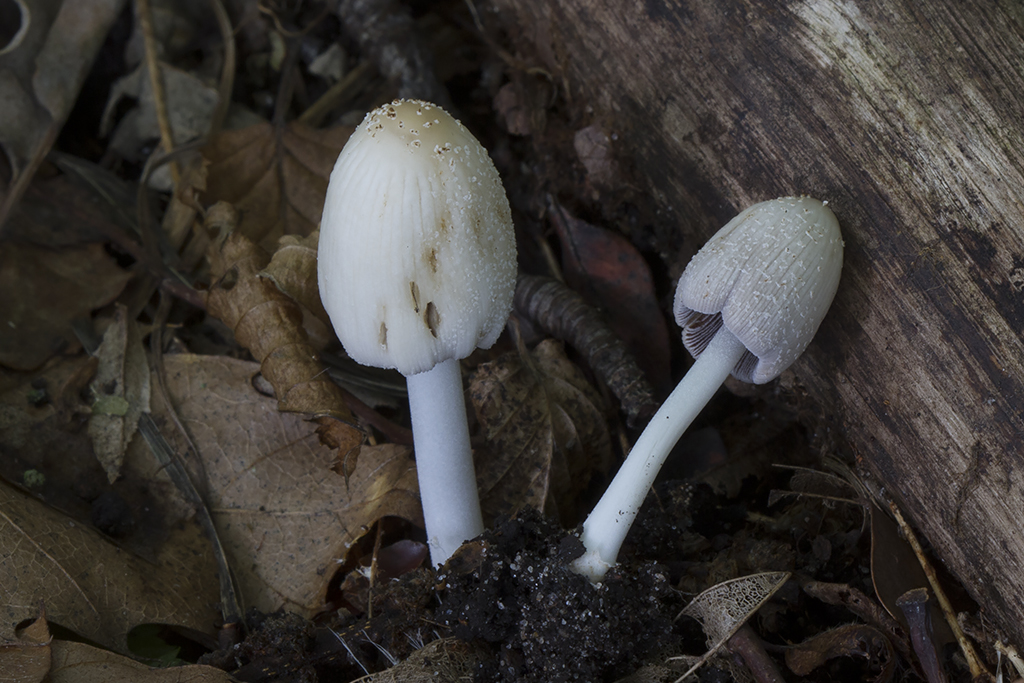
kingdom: Fungi
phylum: Basidiomycota
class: Agaricomycetes
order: Agaricales
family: Psathyrellaceae
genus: Coprinellus
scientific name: Coprinellus domesticus
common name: hus-blækhat
